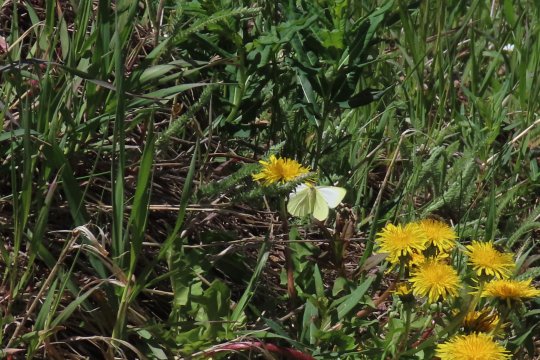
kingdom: Animalia
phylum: Arthropoda
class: Insecta
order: Lepidoptera
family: Pieridae
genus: Pieris
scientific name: Pieris marginalis
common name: Margined White
